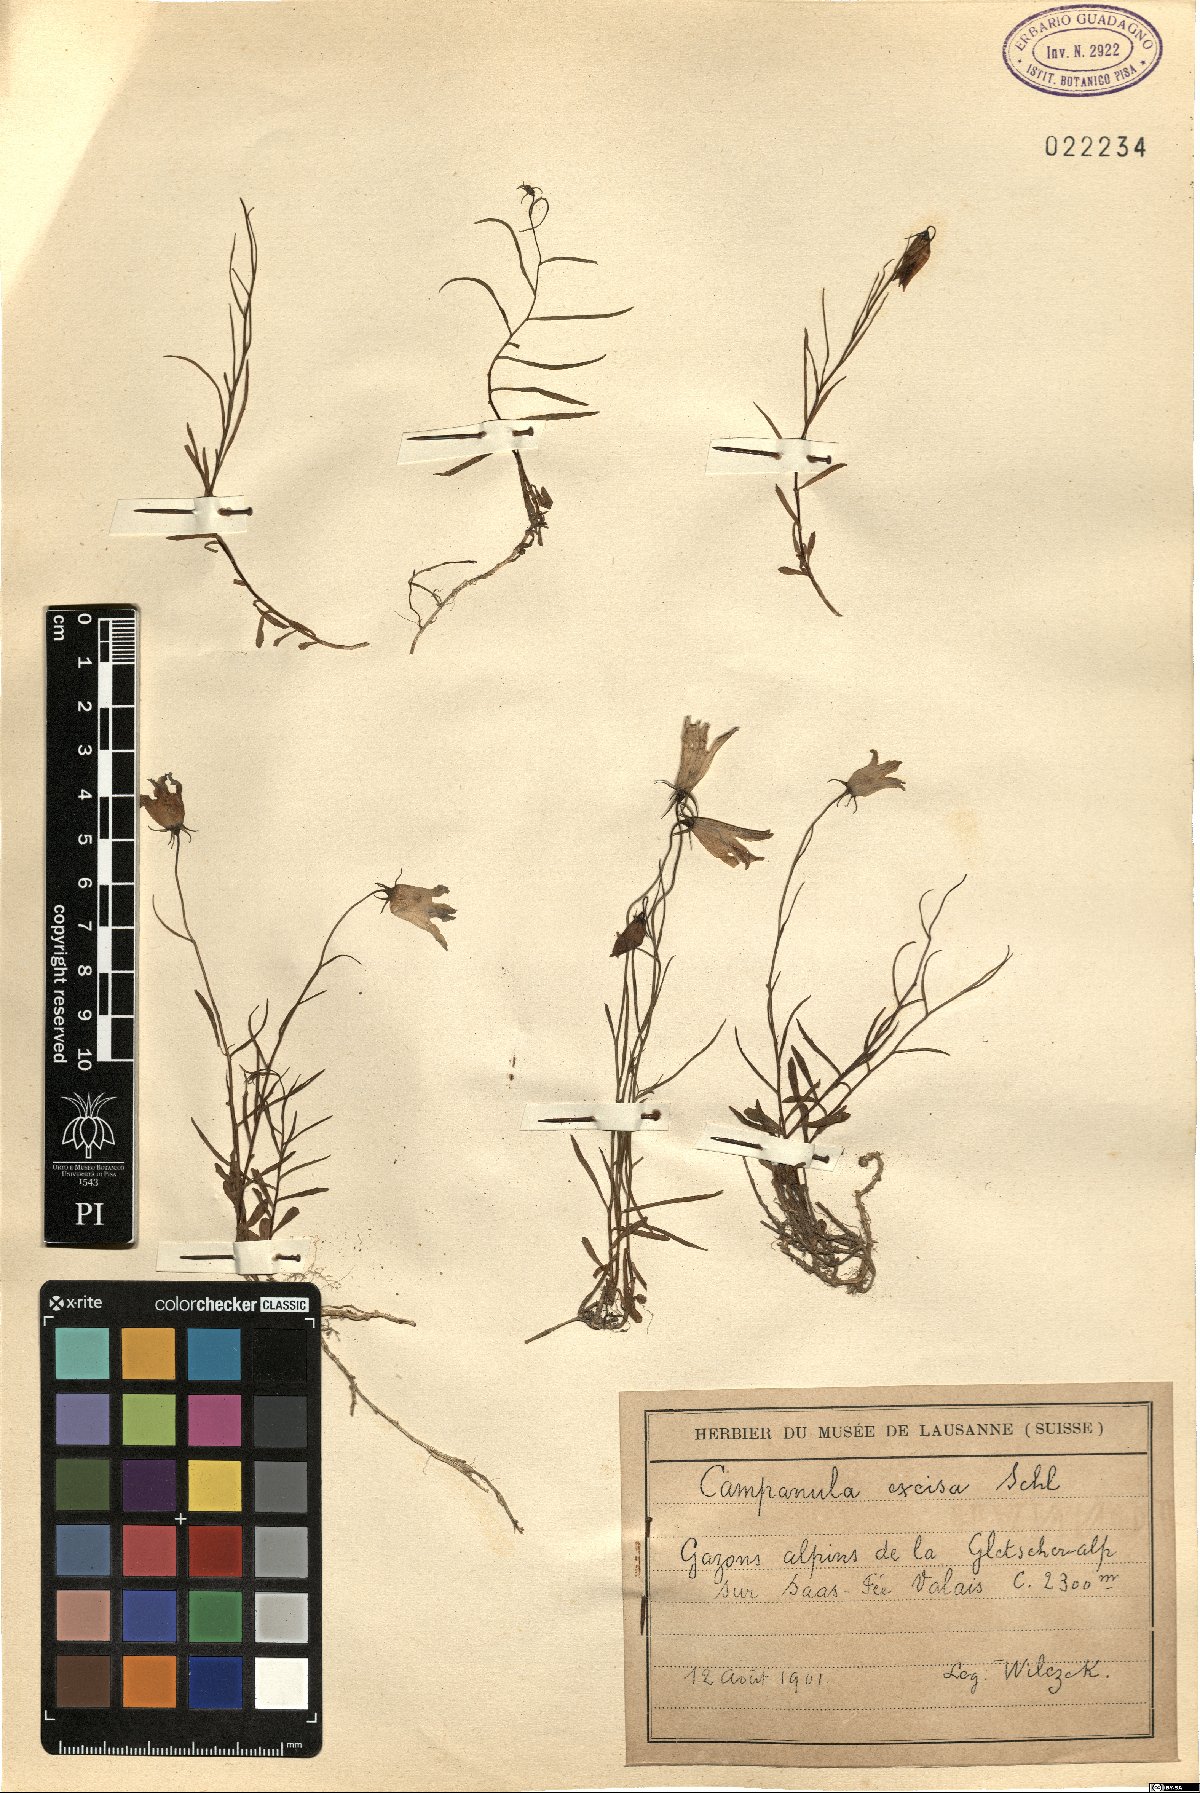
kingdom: Plantae
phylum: Tracheophyta
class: Magnoliopsida
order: Asterales
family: Campanulaceae
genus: Campanula
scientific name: Campanula excisa
